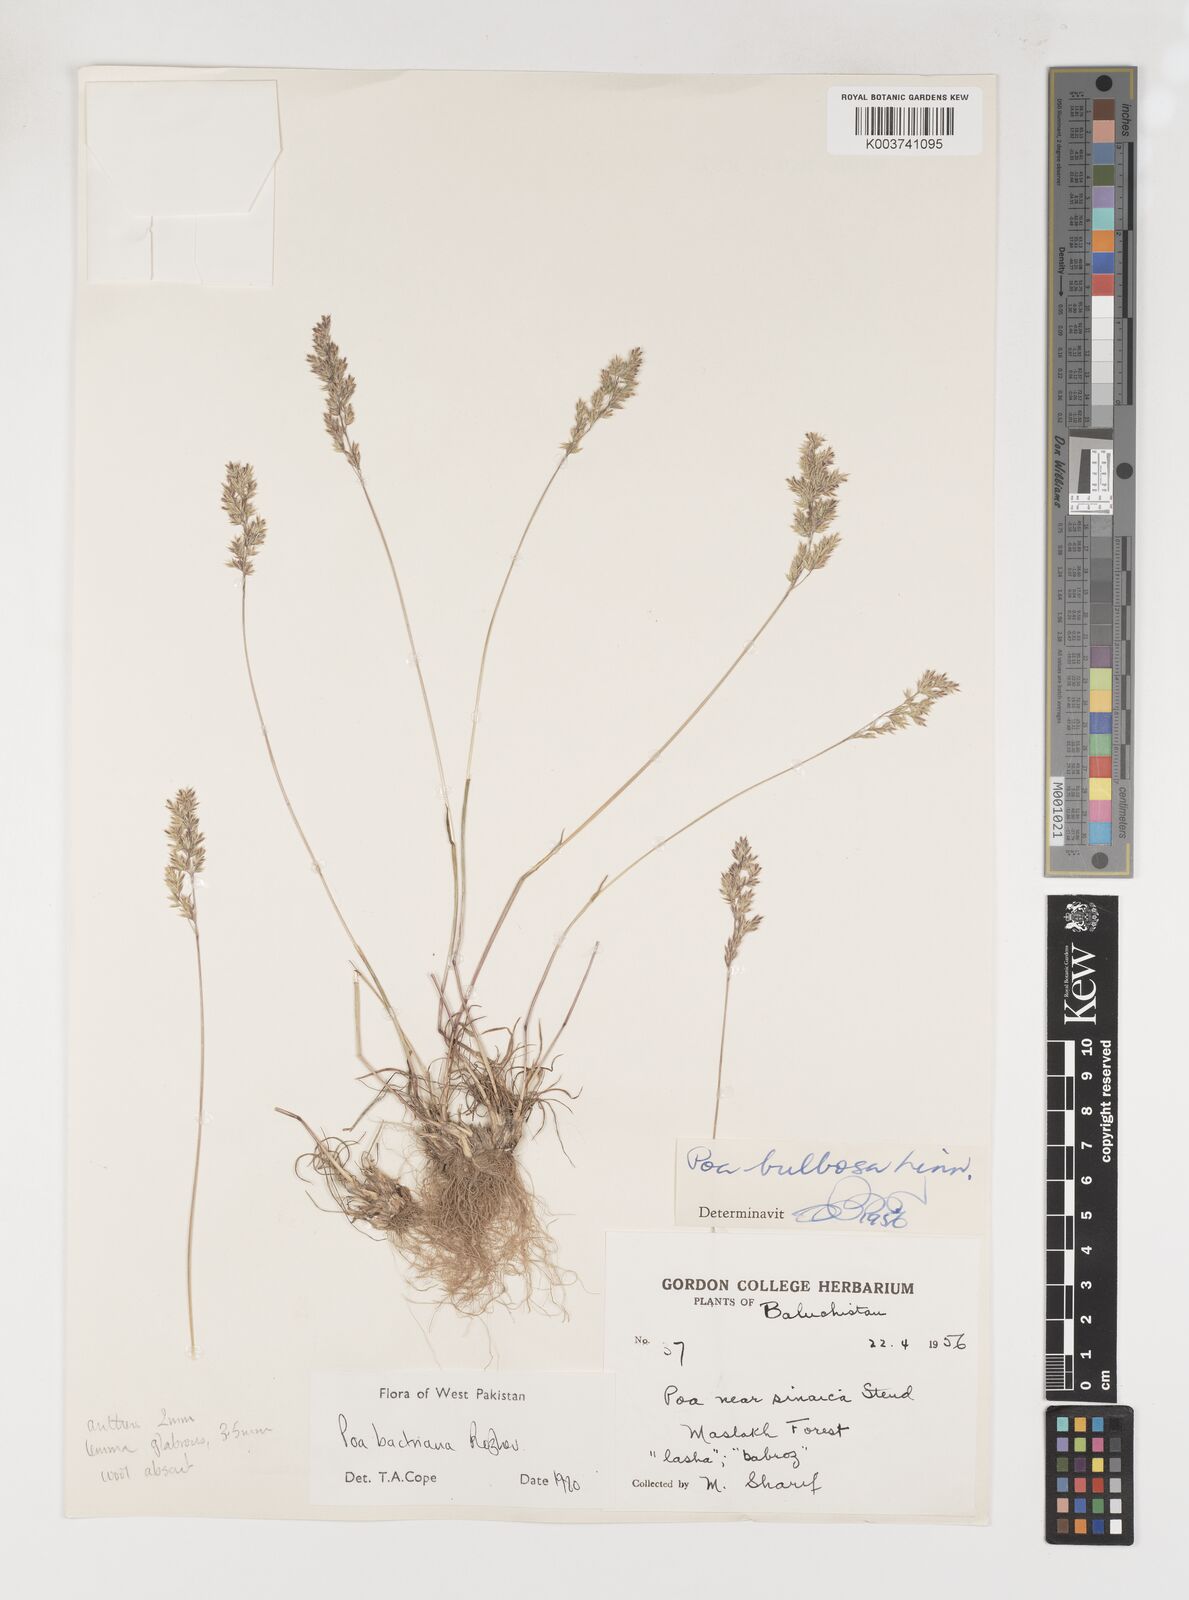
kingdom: Plantae
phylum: Tracheophyta
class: Liliopsida
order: Poales
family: Poaceae
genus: Poa
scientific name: Poa bactriana
